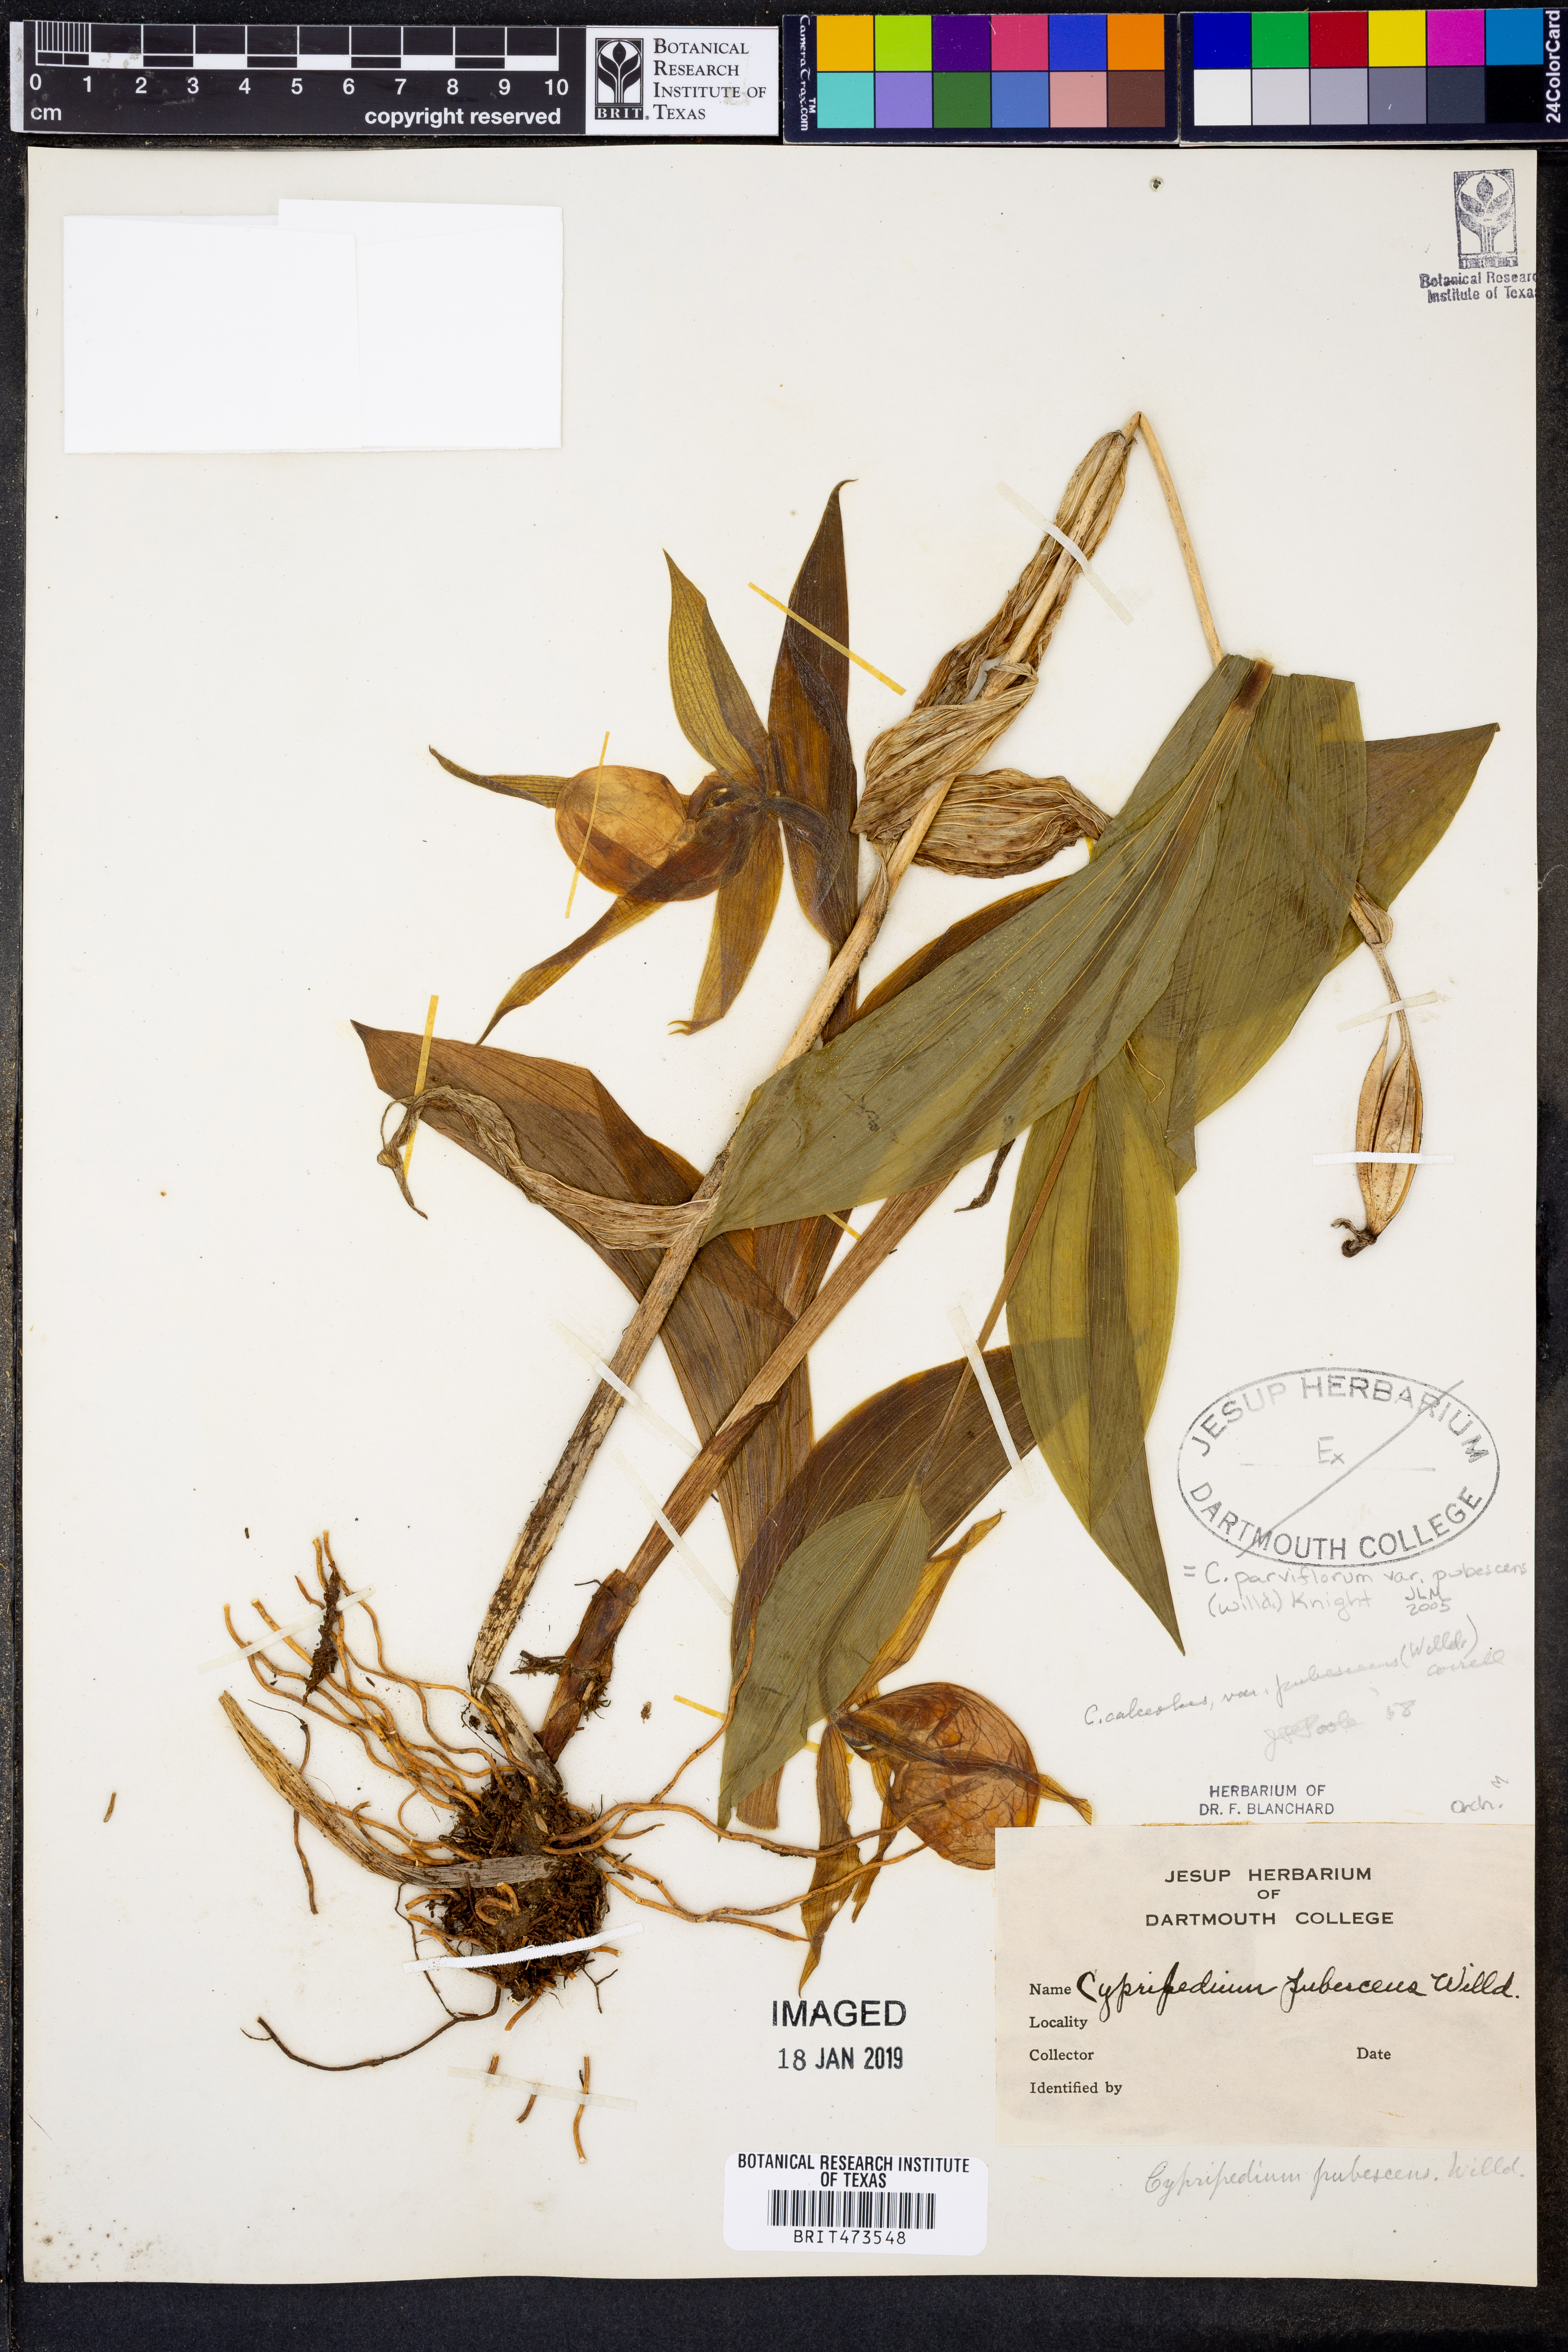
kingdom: Plantae
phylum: Tracheophyta
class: Liliopsida
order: Asparagales
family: Orchidaceae
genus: Cypripedium
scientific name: Cypripedium parviflorum
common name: American yellow lady's-slipper
